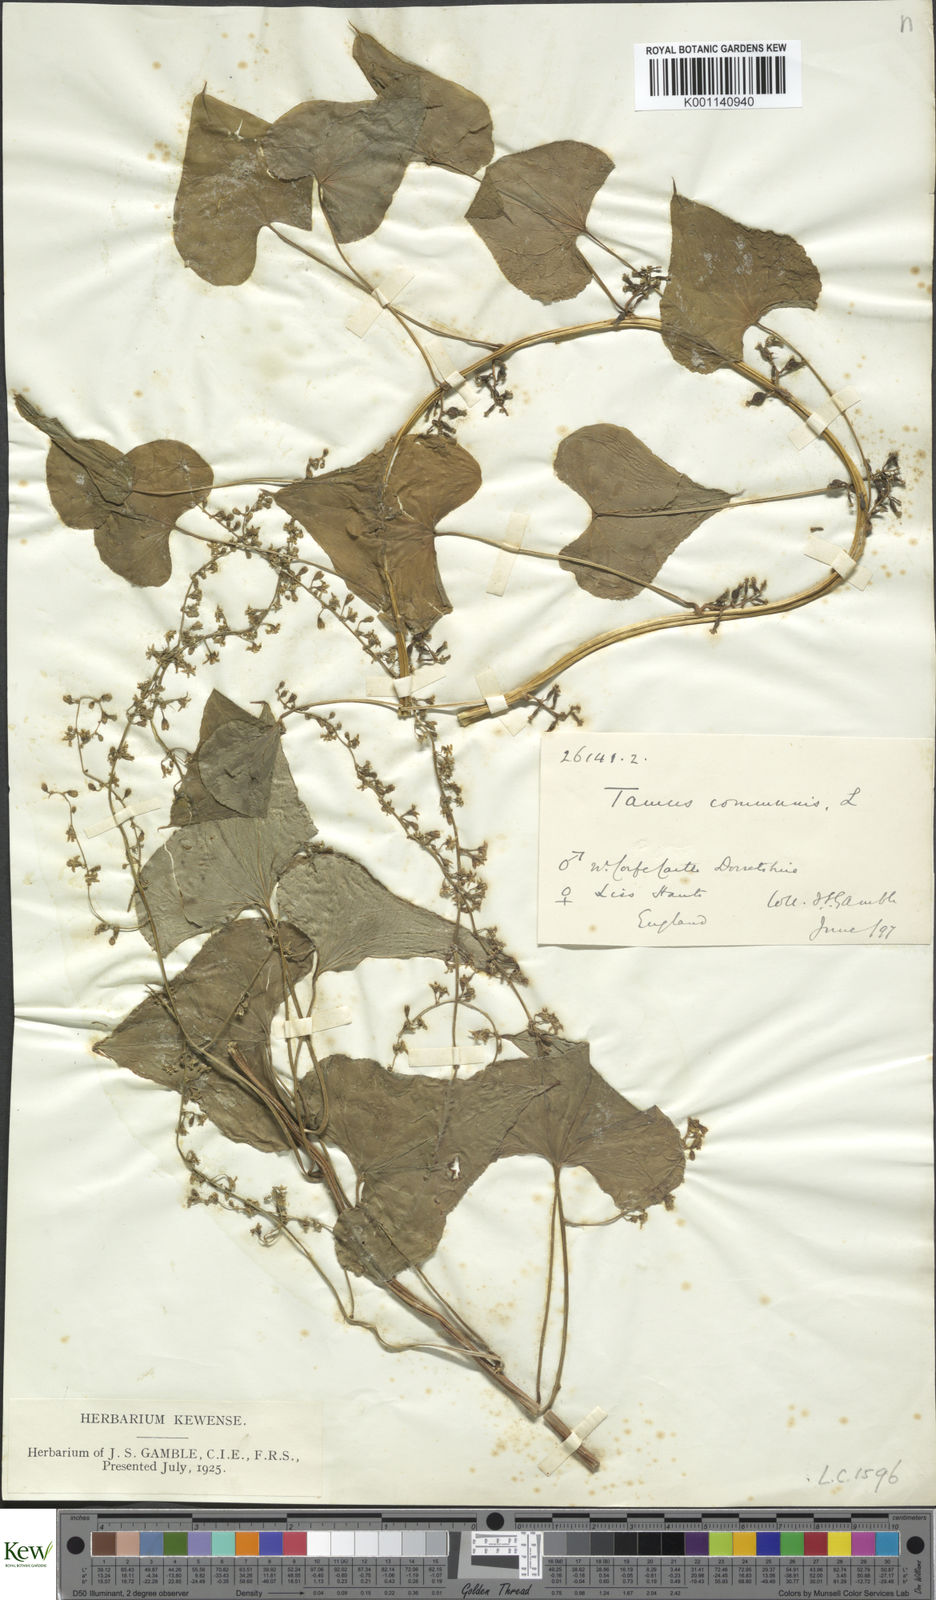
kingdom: Plantae
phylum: Tracheophyta
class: Liliopsida
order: Dioscoreales
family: Dioscoreaceae
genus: Dioscorea
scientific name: Dioscorea communis
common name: Black-bindweed
